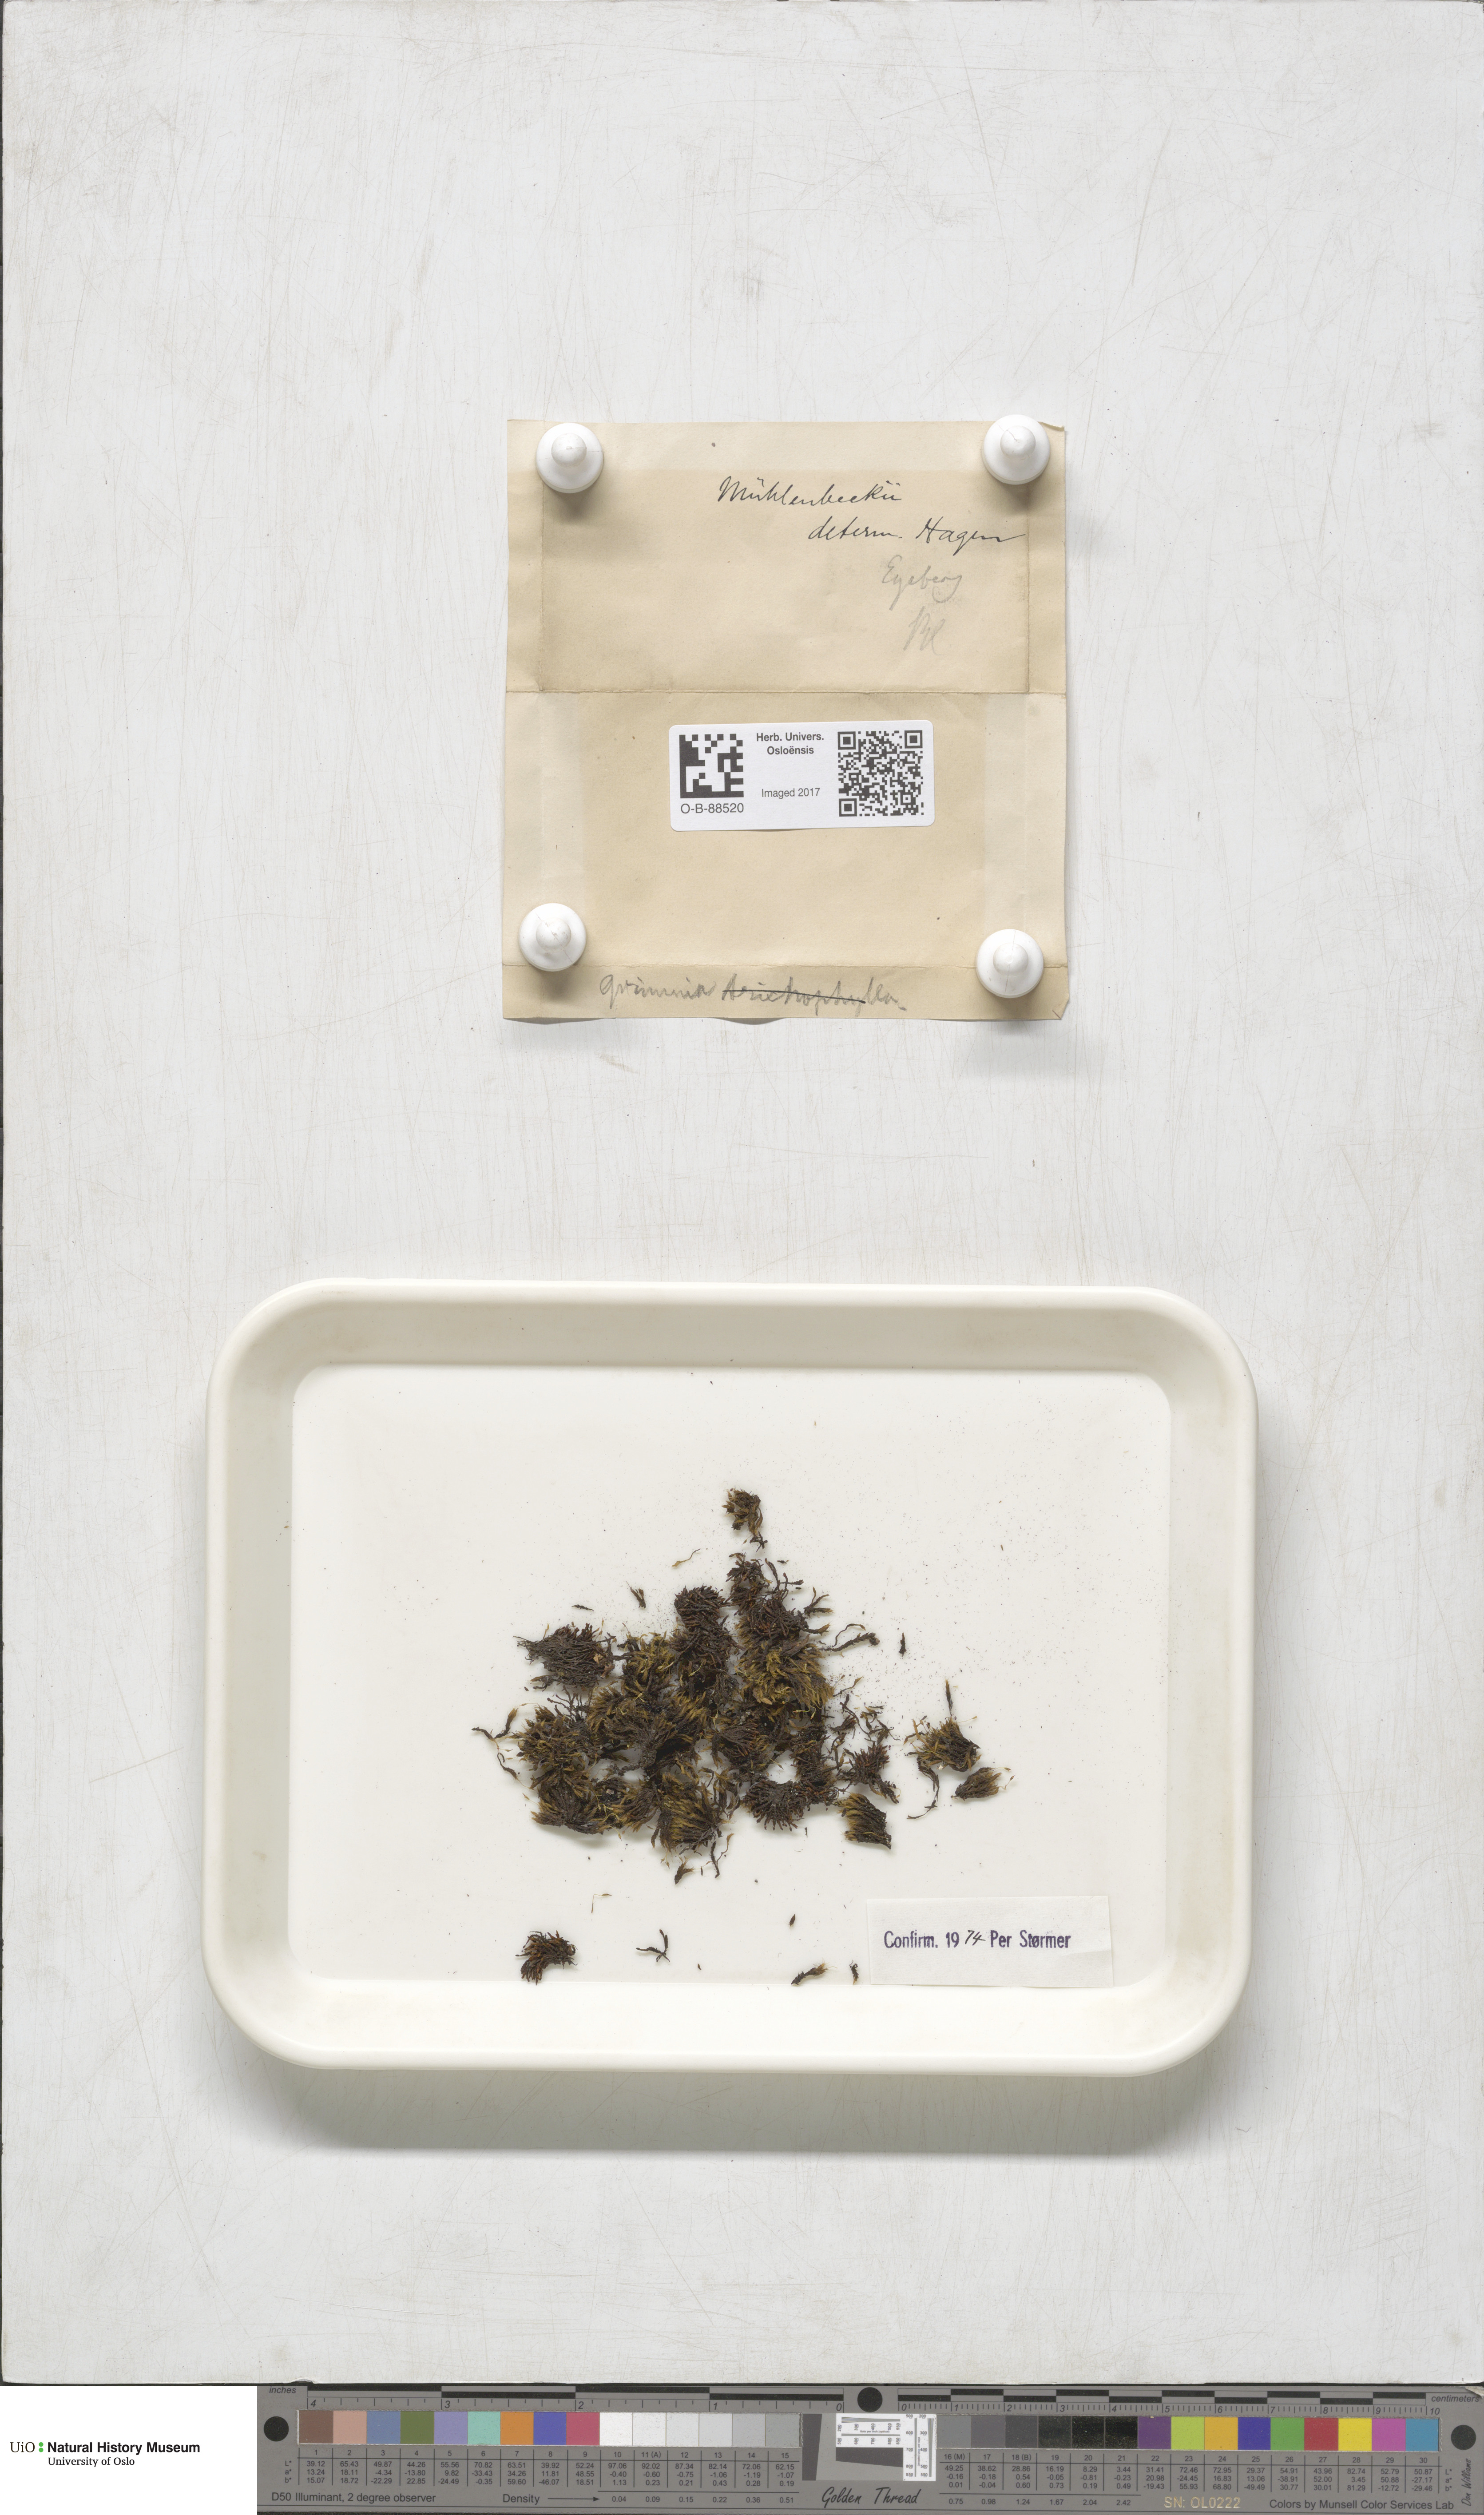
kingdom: Plantae
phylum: Bryophyta
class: Bryopsida
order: Grimmiales
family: Grimmiaceae
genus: Grimmia
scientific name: Grimmia trichophylla
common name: Hair-pointed grimmia
